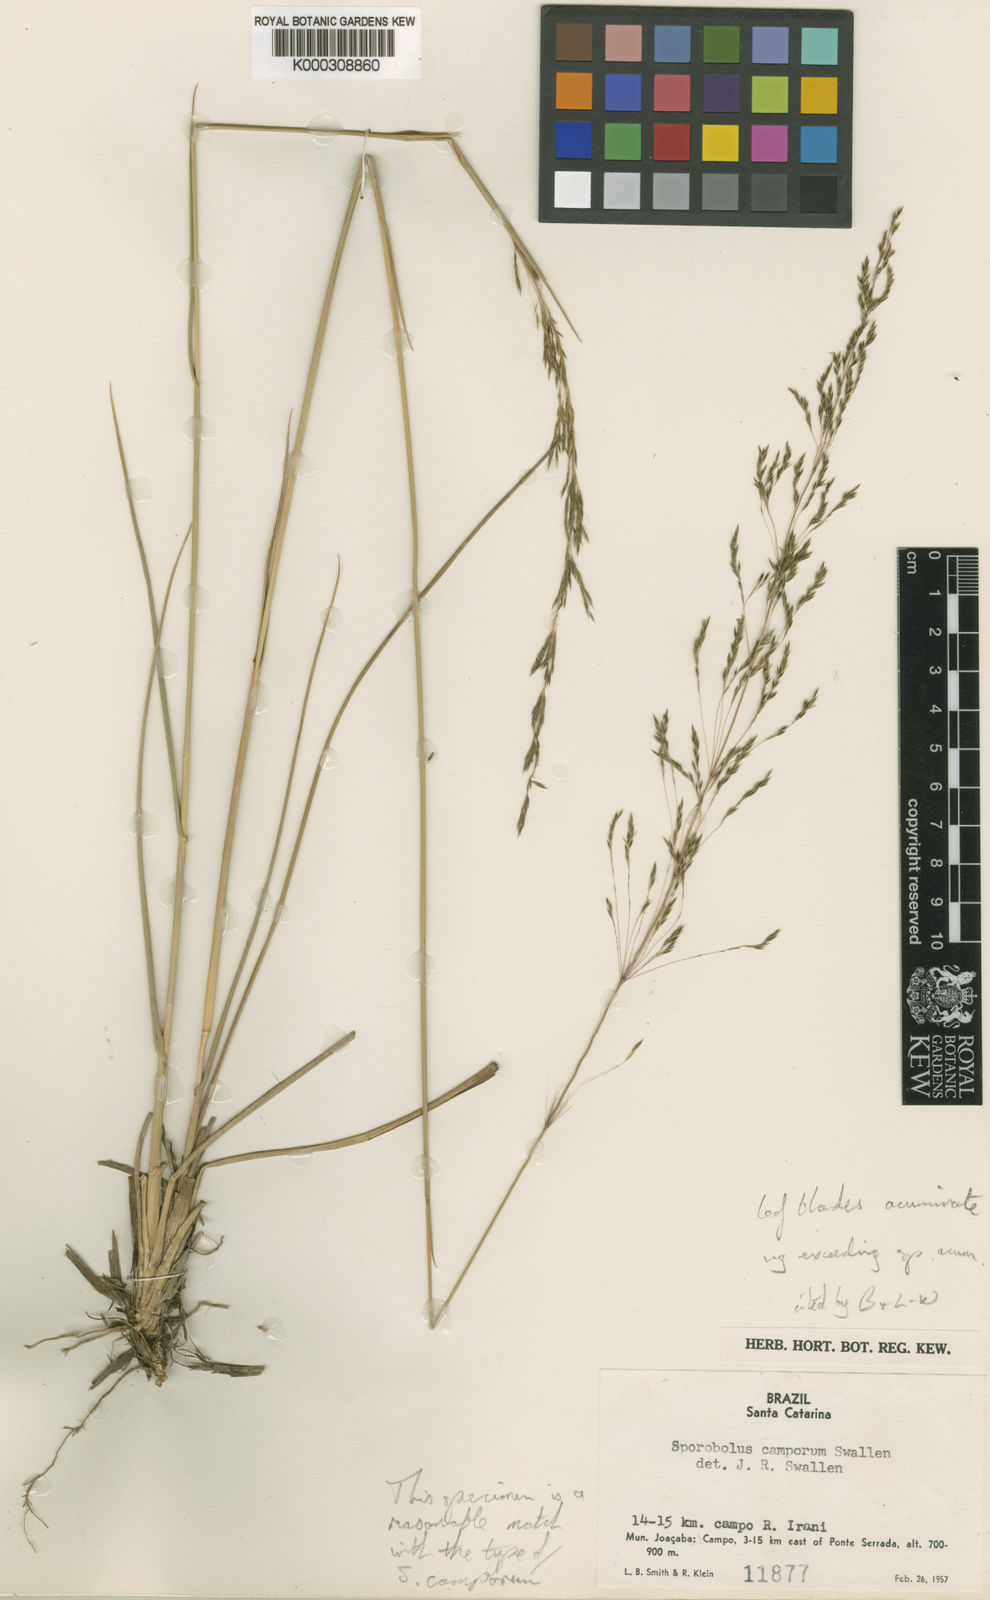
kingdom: Plantae
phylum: Tracheophyta
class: Liliopsida
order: Poales
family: Poaceae
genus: Sporobolus
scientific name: Sporobolus camporum
